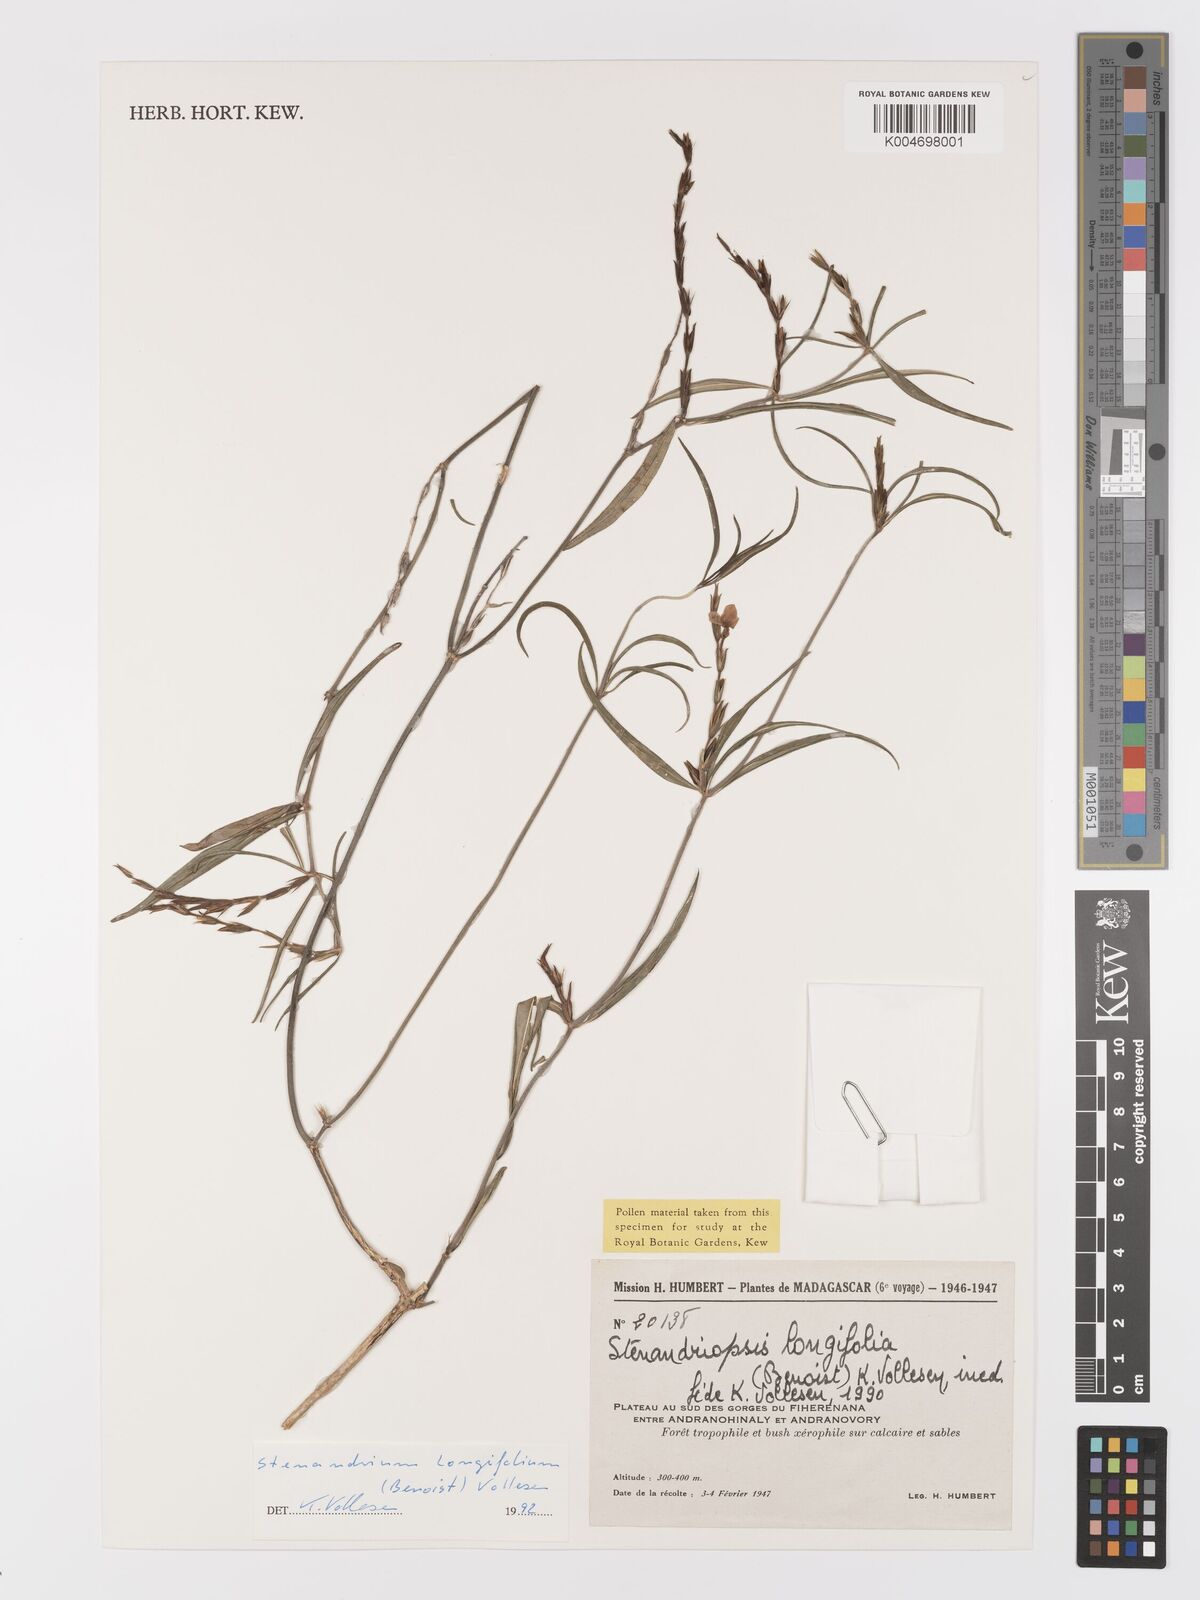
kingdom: Plantae
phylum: Tracheophyta
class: Magnoliopsida
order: Lamiales
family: Acanthaceae
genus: Stenandriopsis
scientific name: Stenandriopsis
